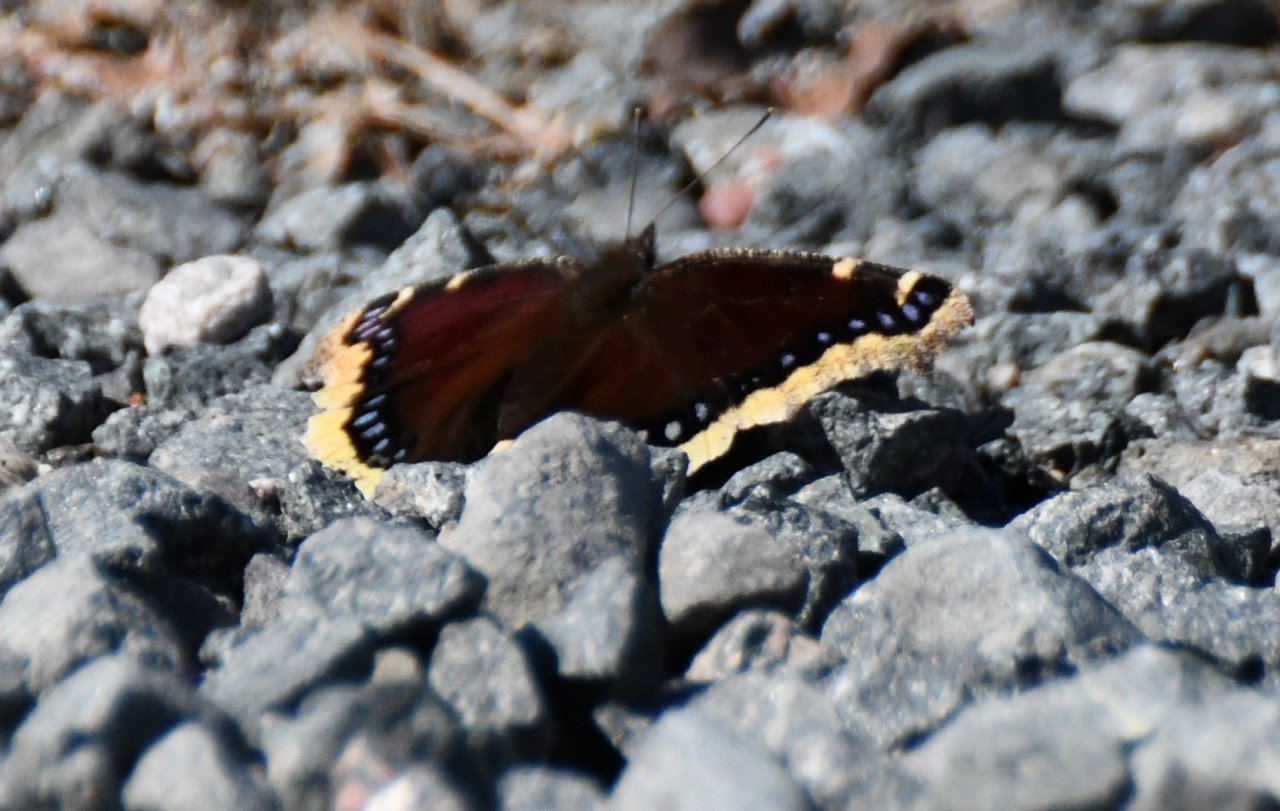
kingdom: Animalia
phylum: Arthropoda
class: Insecta
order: Lepidoptera
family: Nymphalidae
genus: Nymphalis
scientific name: Nymphalis antiopa
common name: Mourning Cloak
